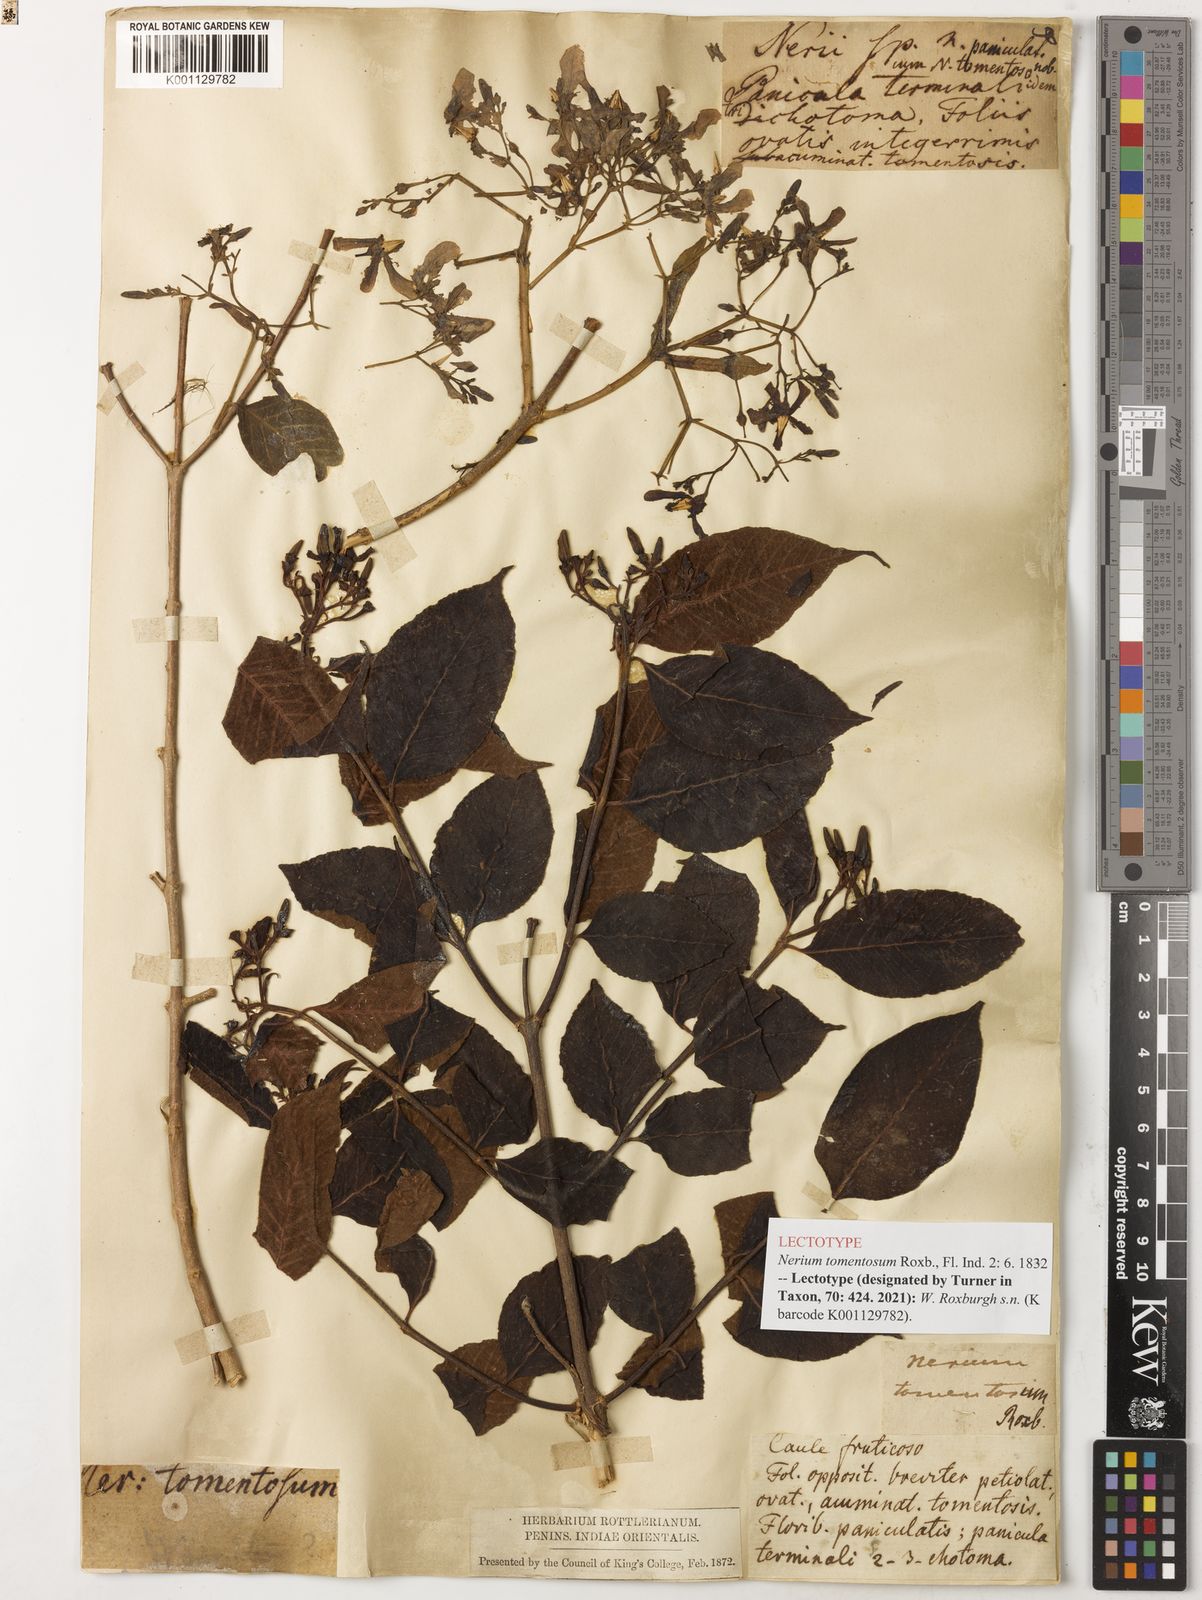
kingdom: Plantae
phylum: Tracheophyta
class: Magnoliopsida
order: Gentianales
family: Apocynaceae
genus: Wrightia
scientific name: Wrightia arborea
